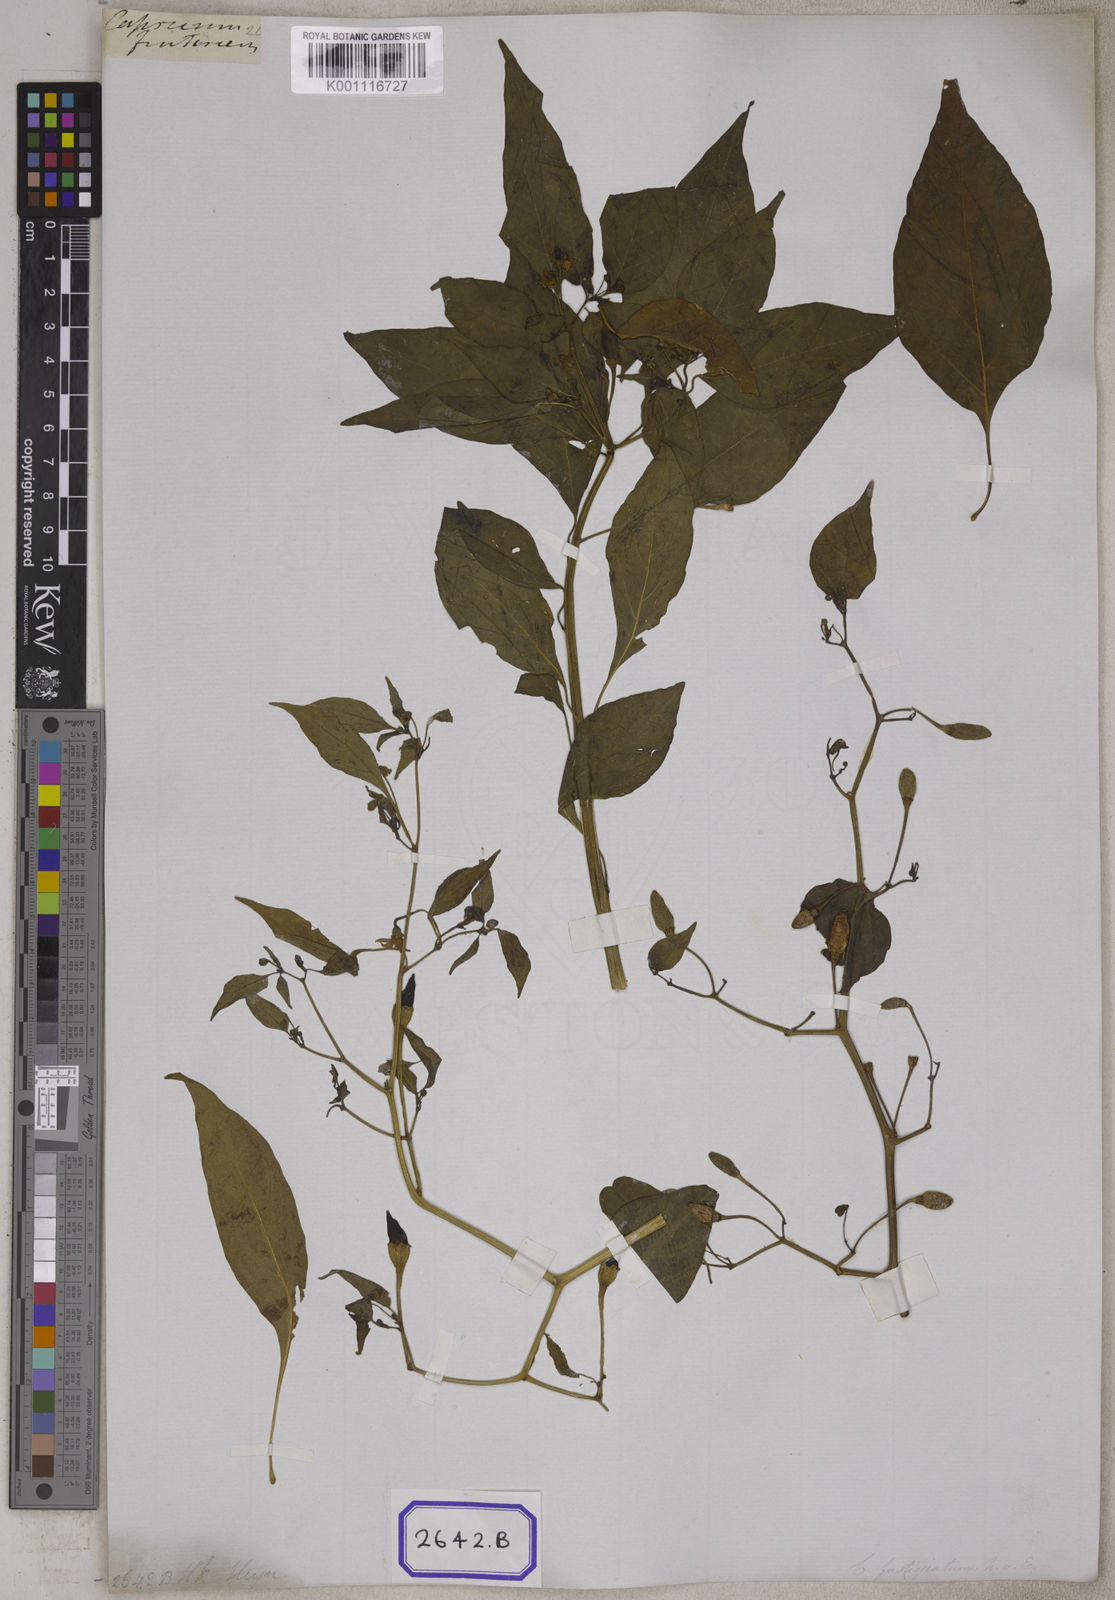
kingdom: Plantae
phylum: Tracheophyta
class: Magnoliopsida
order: Solanales
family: Solanaceae
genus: Capsicum
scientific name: Capsicum frutescens
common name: Bird pepper
